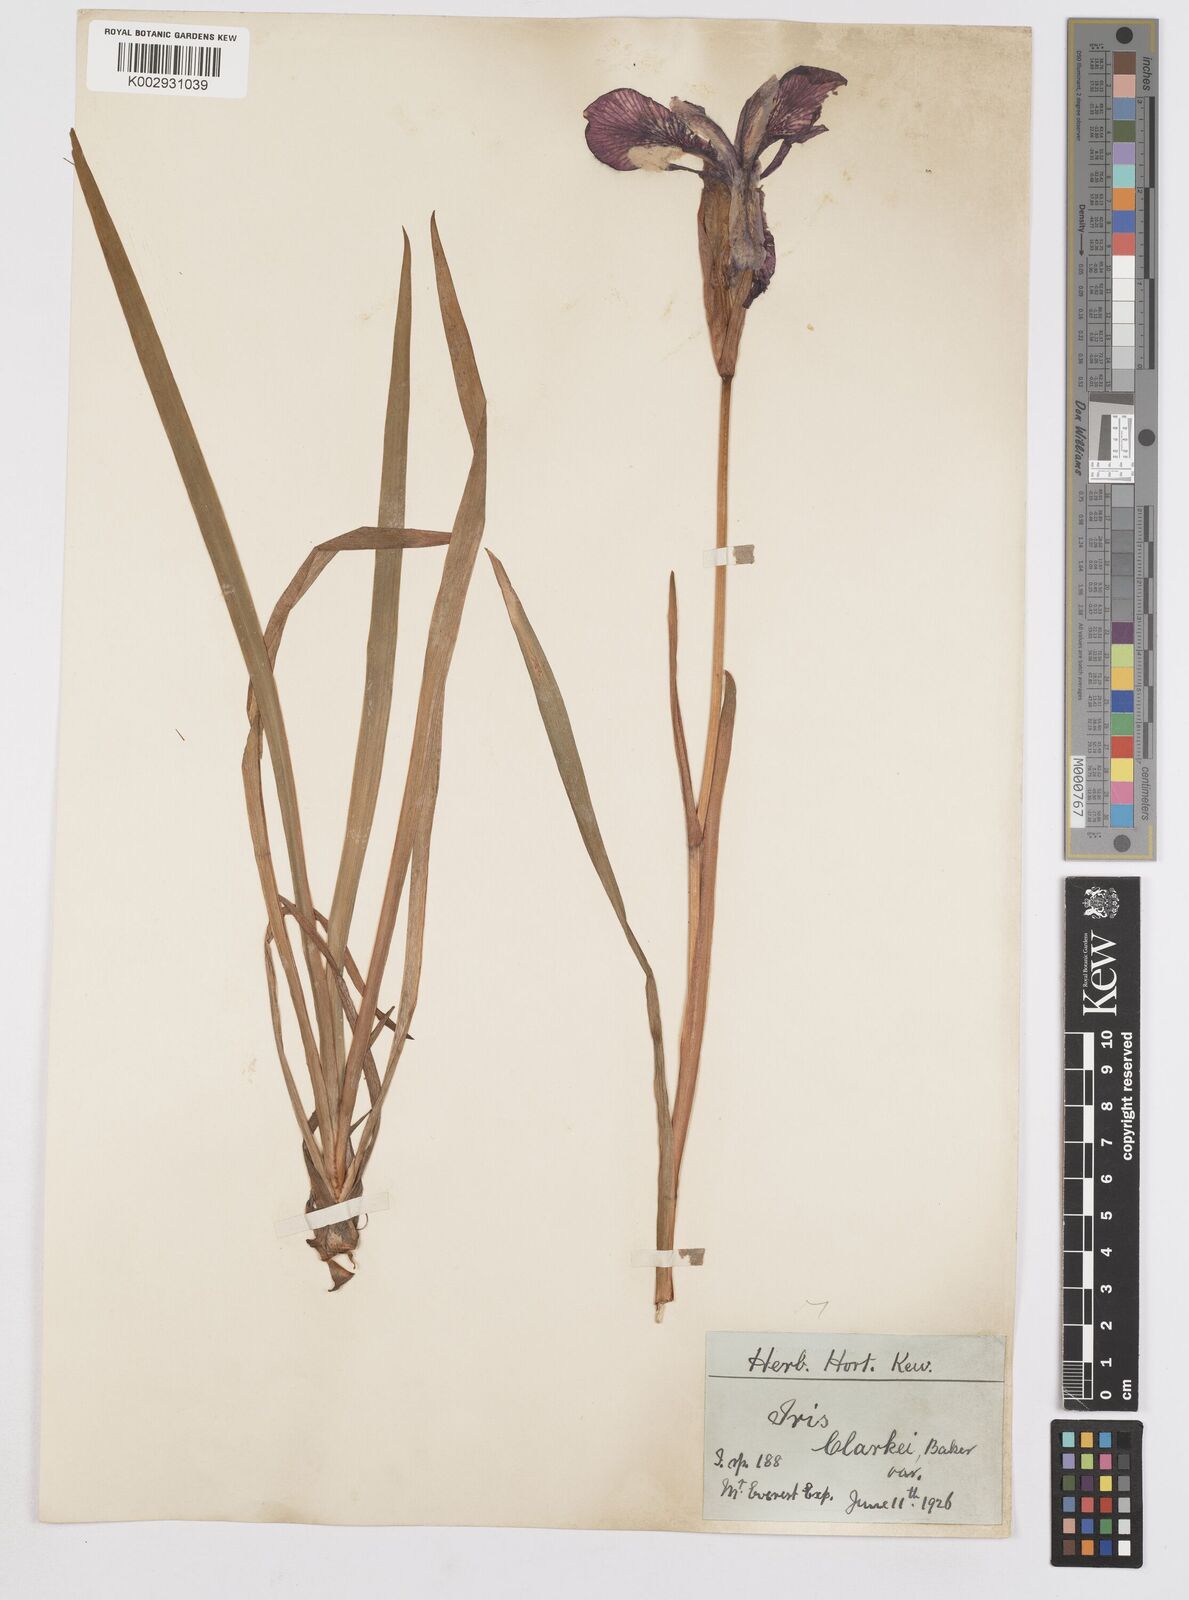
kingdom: Plantae
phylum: Tracheophyta
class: Liliopsida
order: Asparagales
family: Iridaceae
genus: Iris
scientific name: Iris clarkei
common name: Tibet iris
